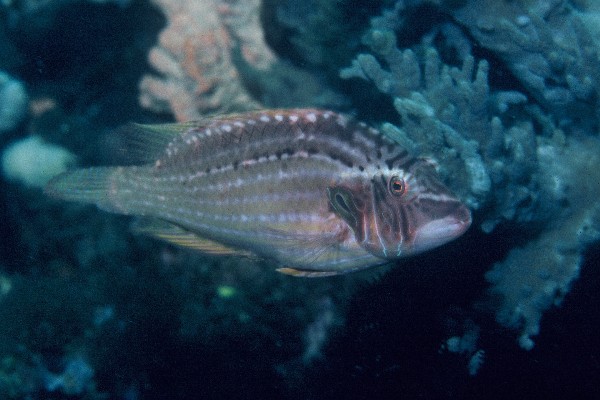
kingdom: Animalia
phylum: Chordata
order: Perciformes
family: Labridae
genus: Pteragogus
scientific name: Pteragogus enneacanthus
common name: Cockerel wrasse
